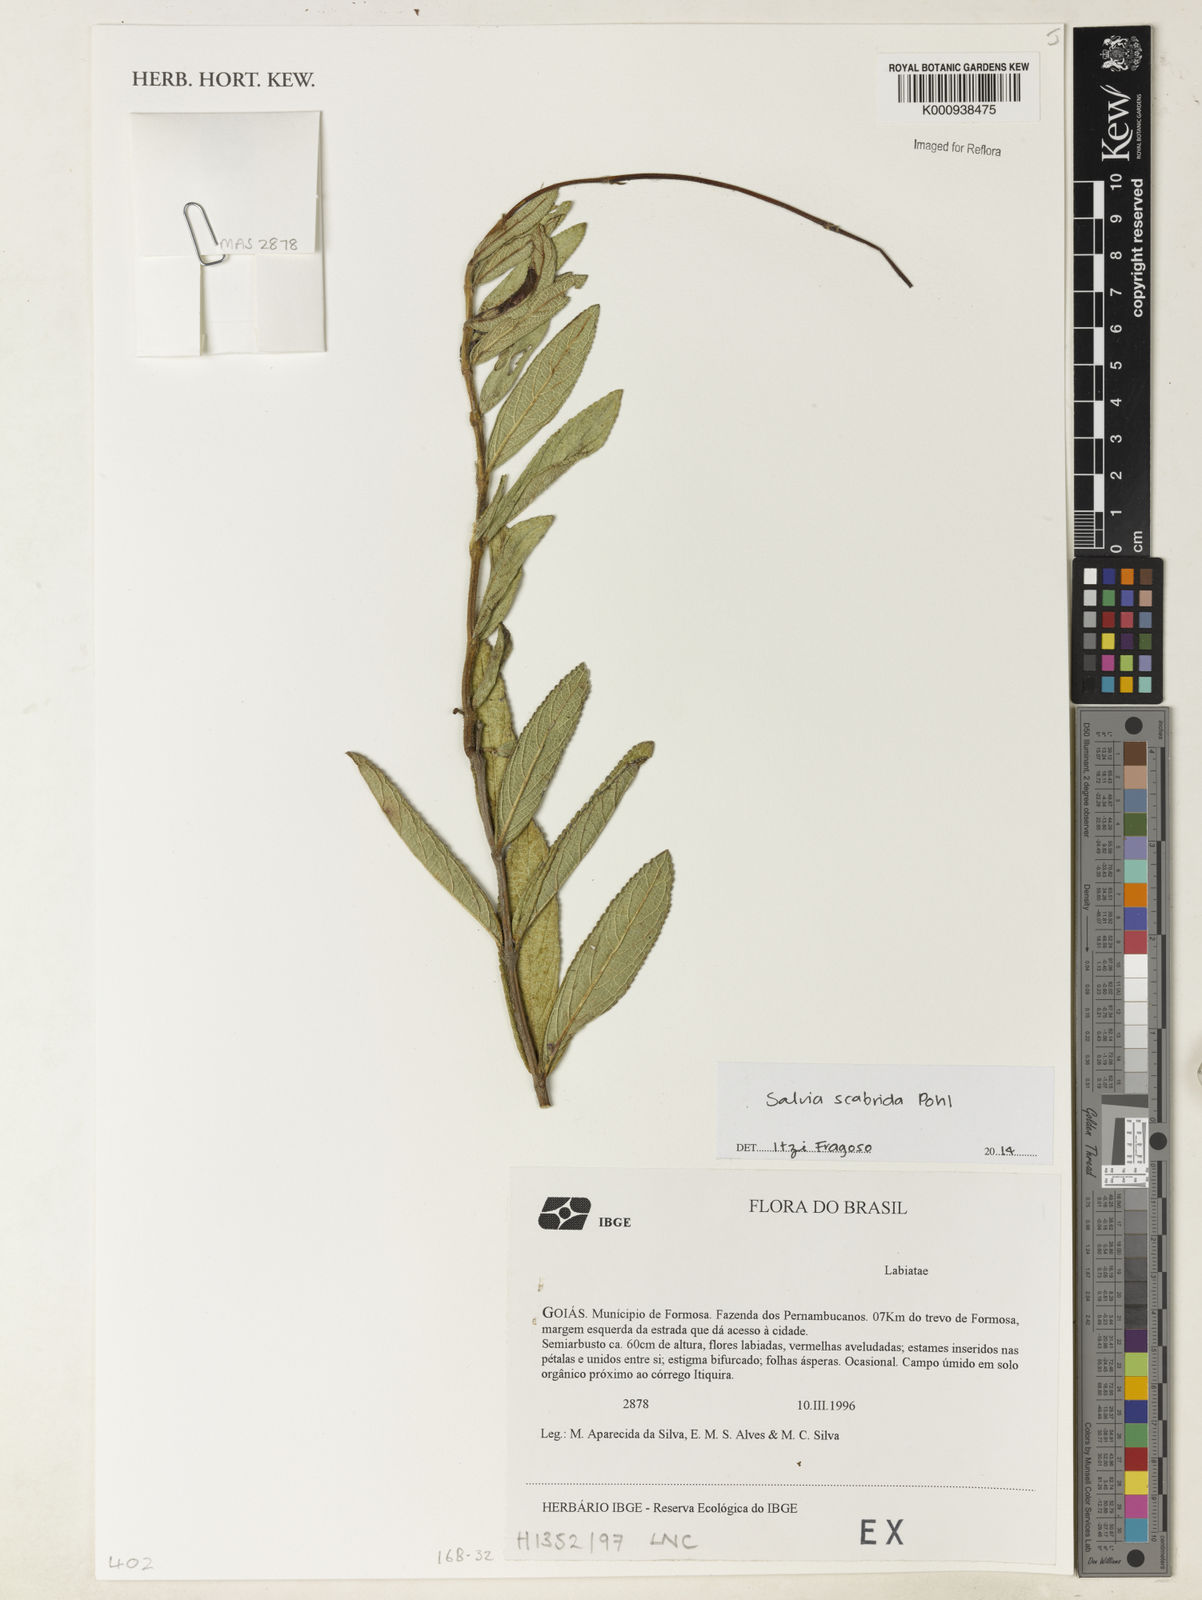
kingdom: Plantae
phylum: Tracheophyta
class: Magnoliopsida
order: Lamiales
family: Lamiaceae
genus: Salvia
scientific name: Salvia scabrida
